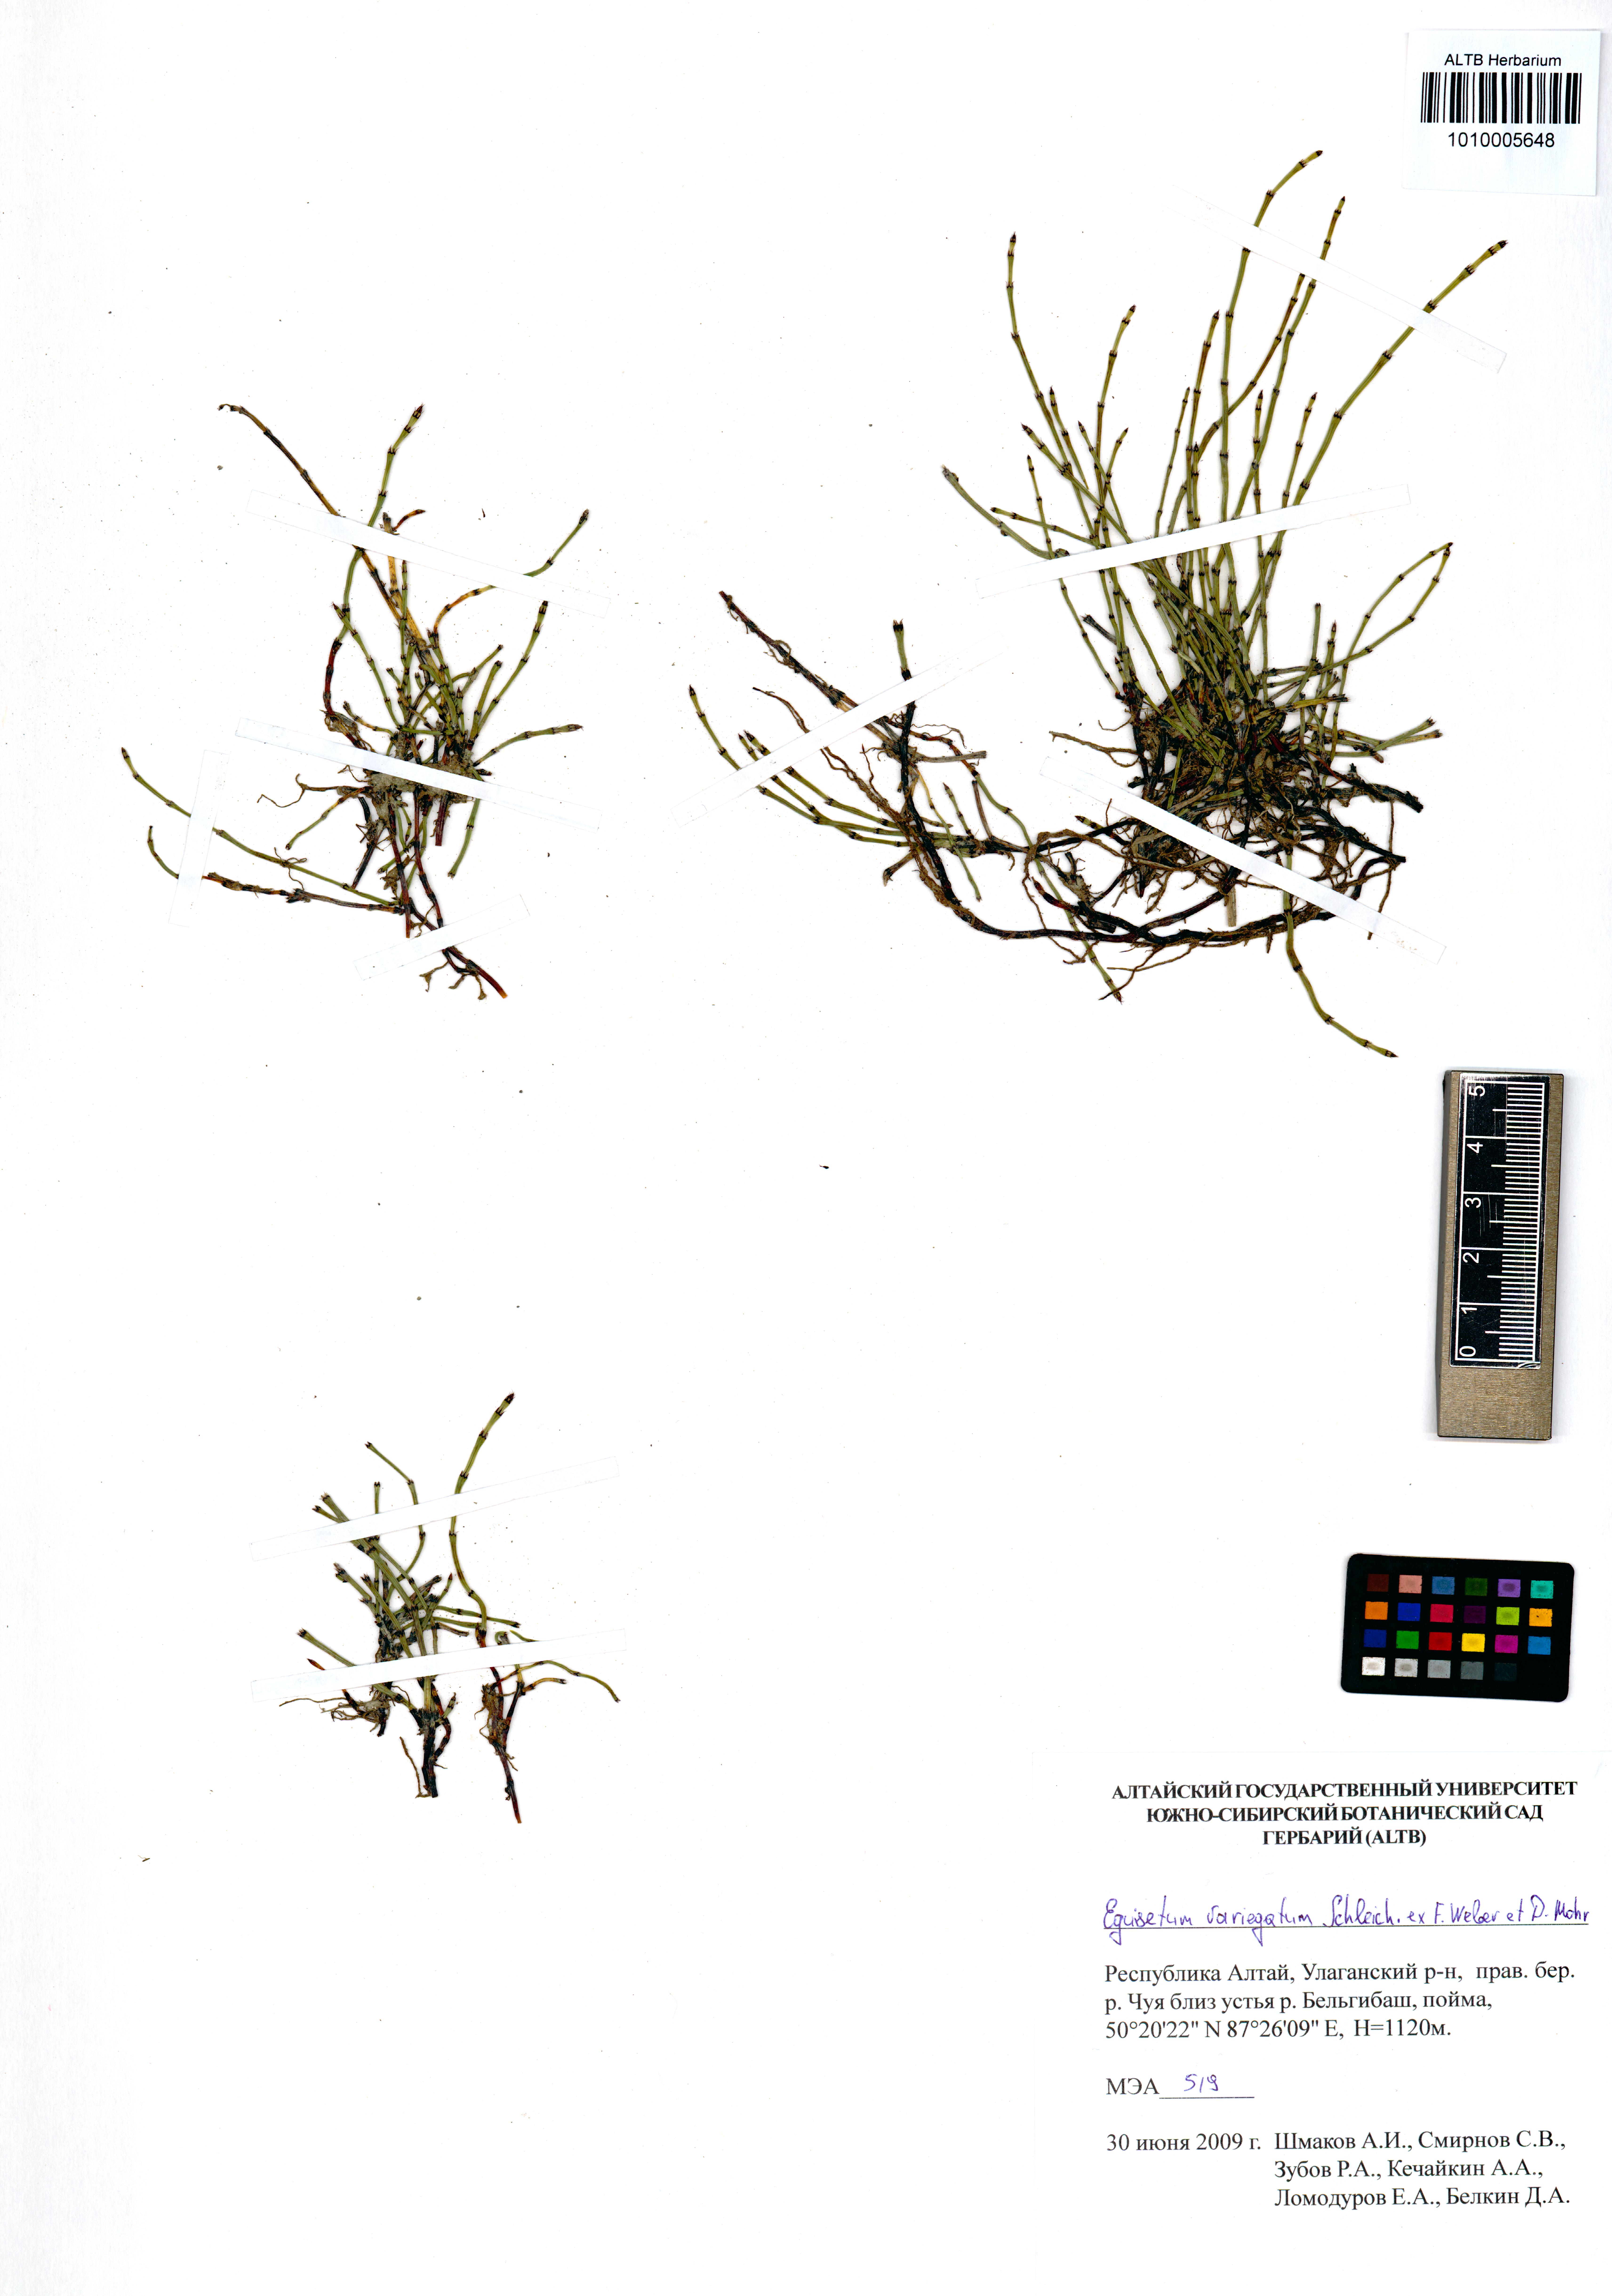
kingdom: Plantae
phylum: Tracheophyta
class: Polypodiopsida
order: Equisetales
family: Equisetaceae
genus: Equisetum
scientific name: Equisetum variegatum
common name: Variegated horsetail
